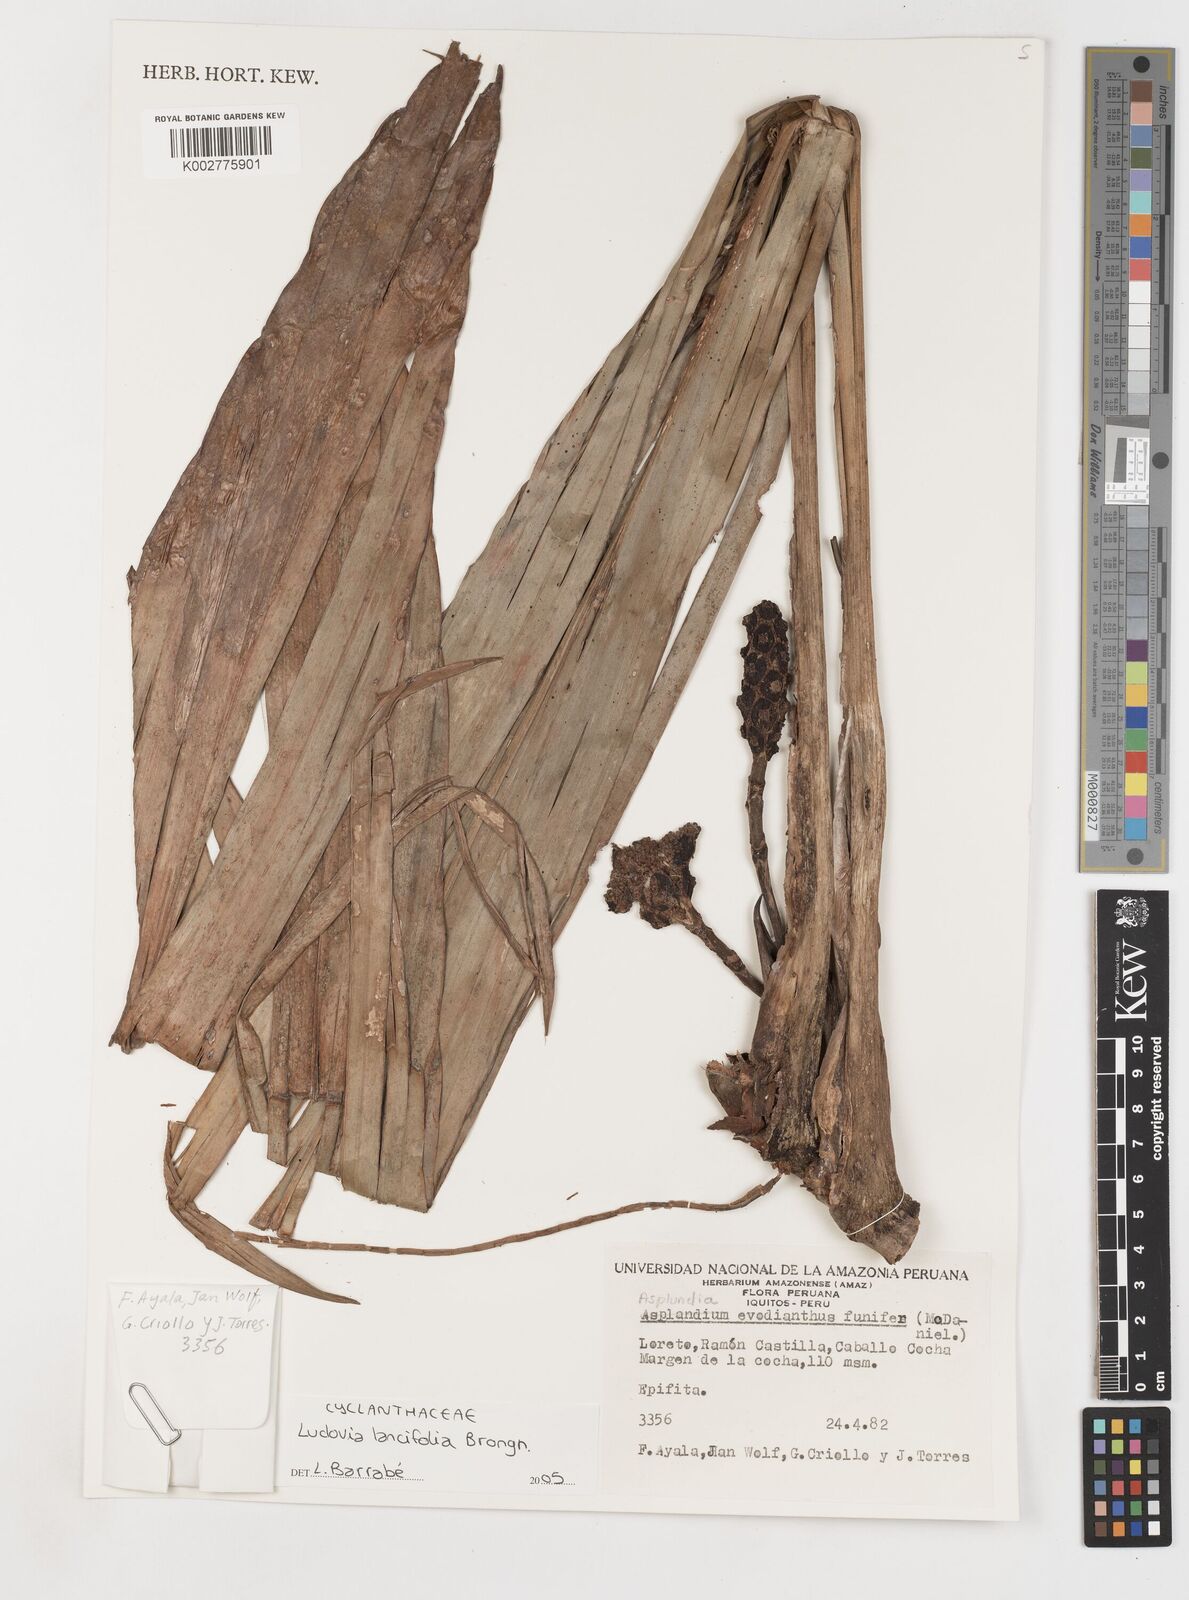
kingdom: Plantae
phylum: Tracheophyta
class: Liliopsida
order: Pandanales
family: Cyclanthaceae
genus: Ludovia
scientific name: Ludovia lancifolia
